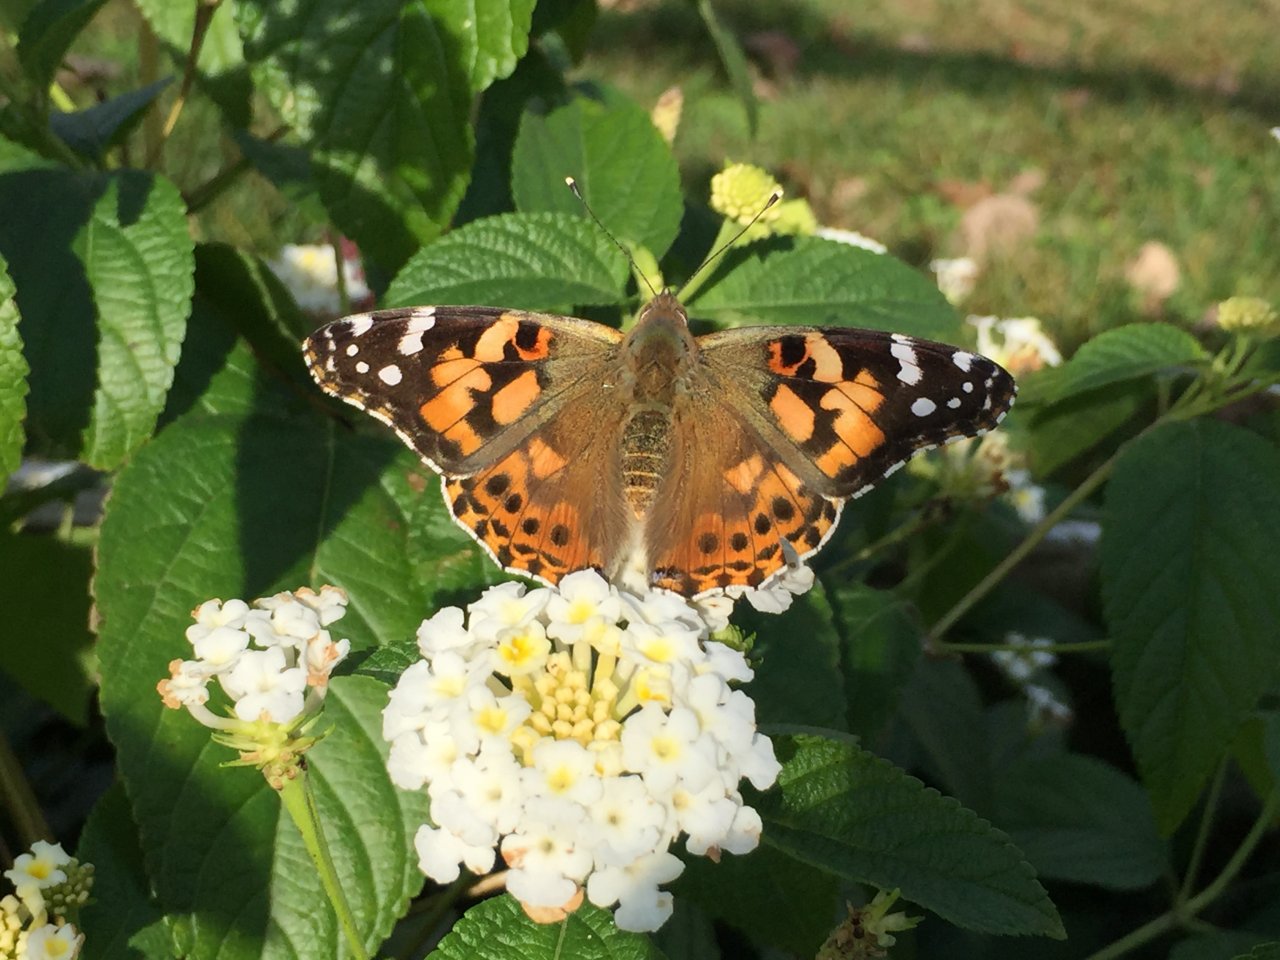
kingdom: Animalia
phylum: Arthropoda
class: Insecta
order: Lepidoptera
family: Nymphalidae
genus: Vanessa
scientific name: Vanessa cardui
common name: Painted Lady
